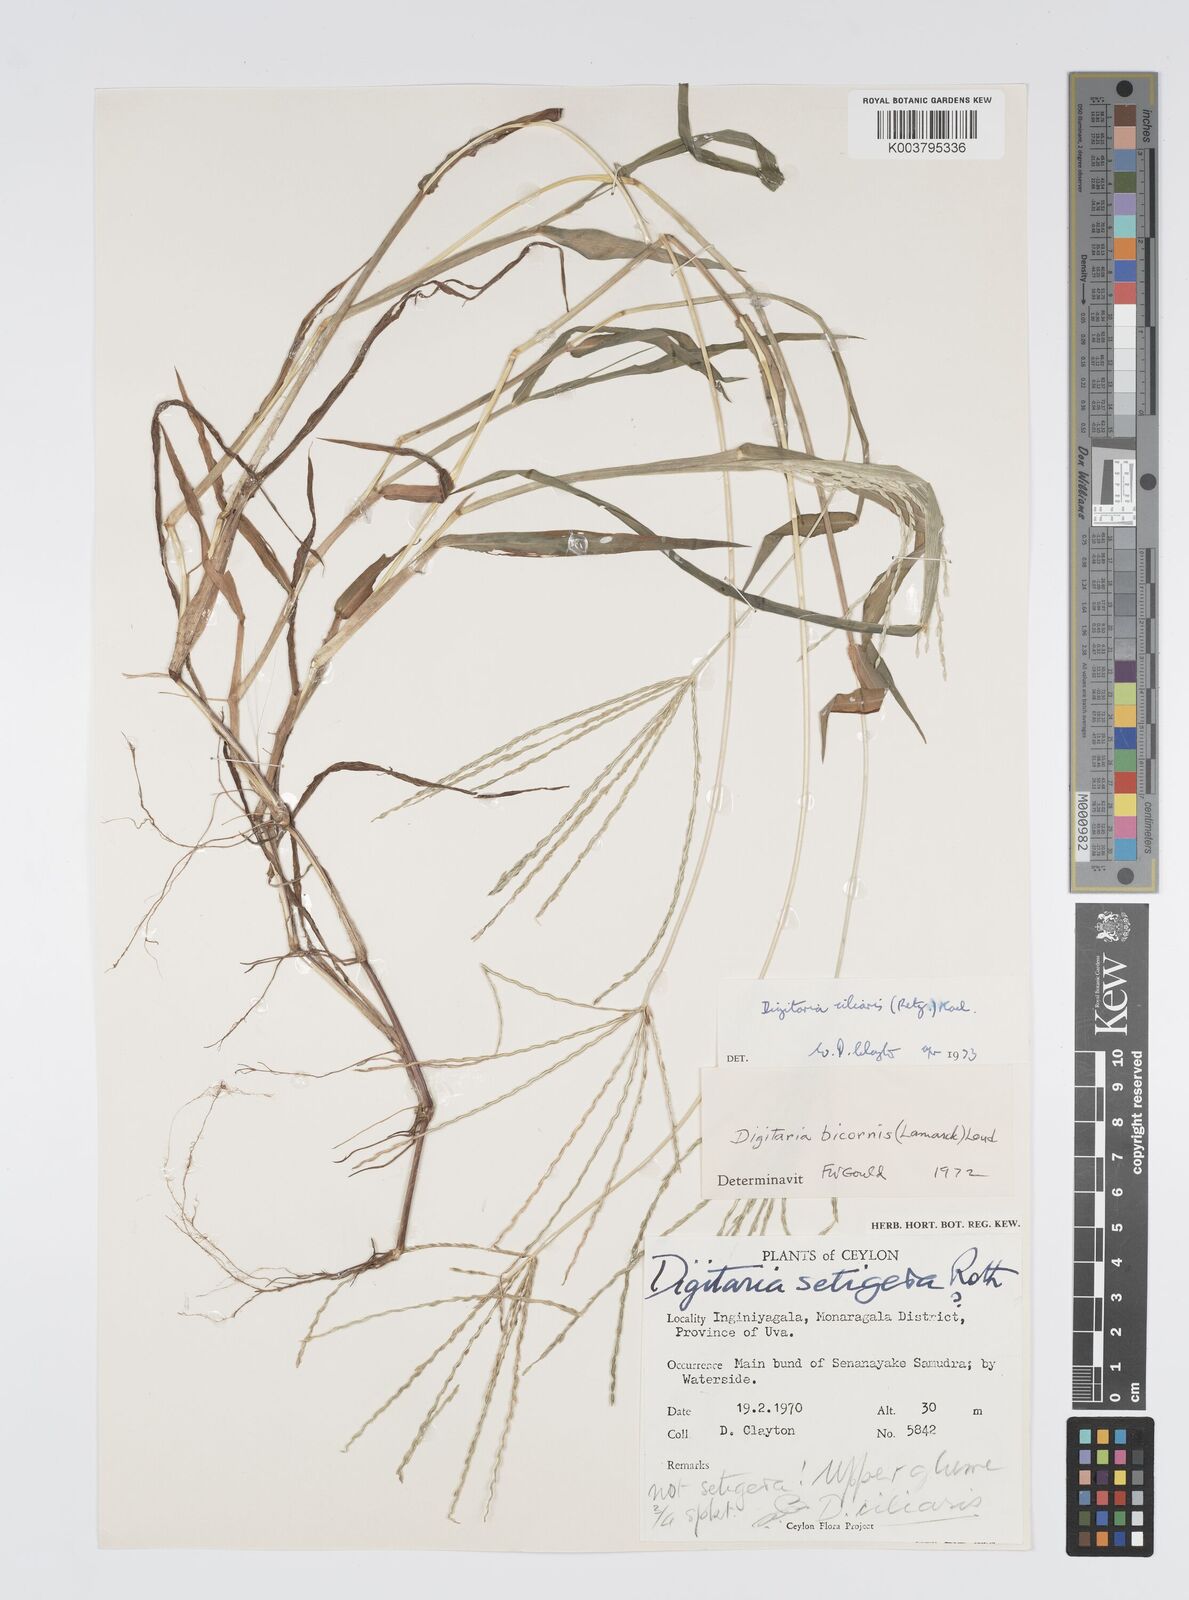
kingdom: Plantae
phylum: Tracheophyta
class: Liliopsida
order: Poales
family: Poaceae
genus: Digitaria
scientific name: Digitaria ciliaris
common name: Tropical finger-grass
